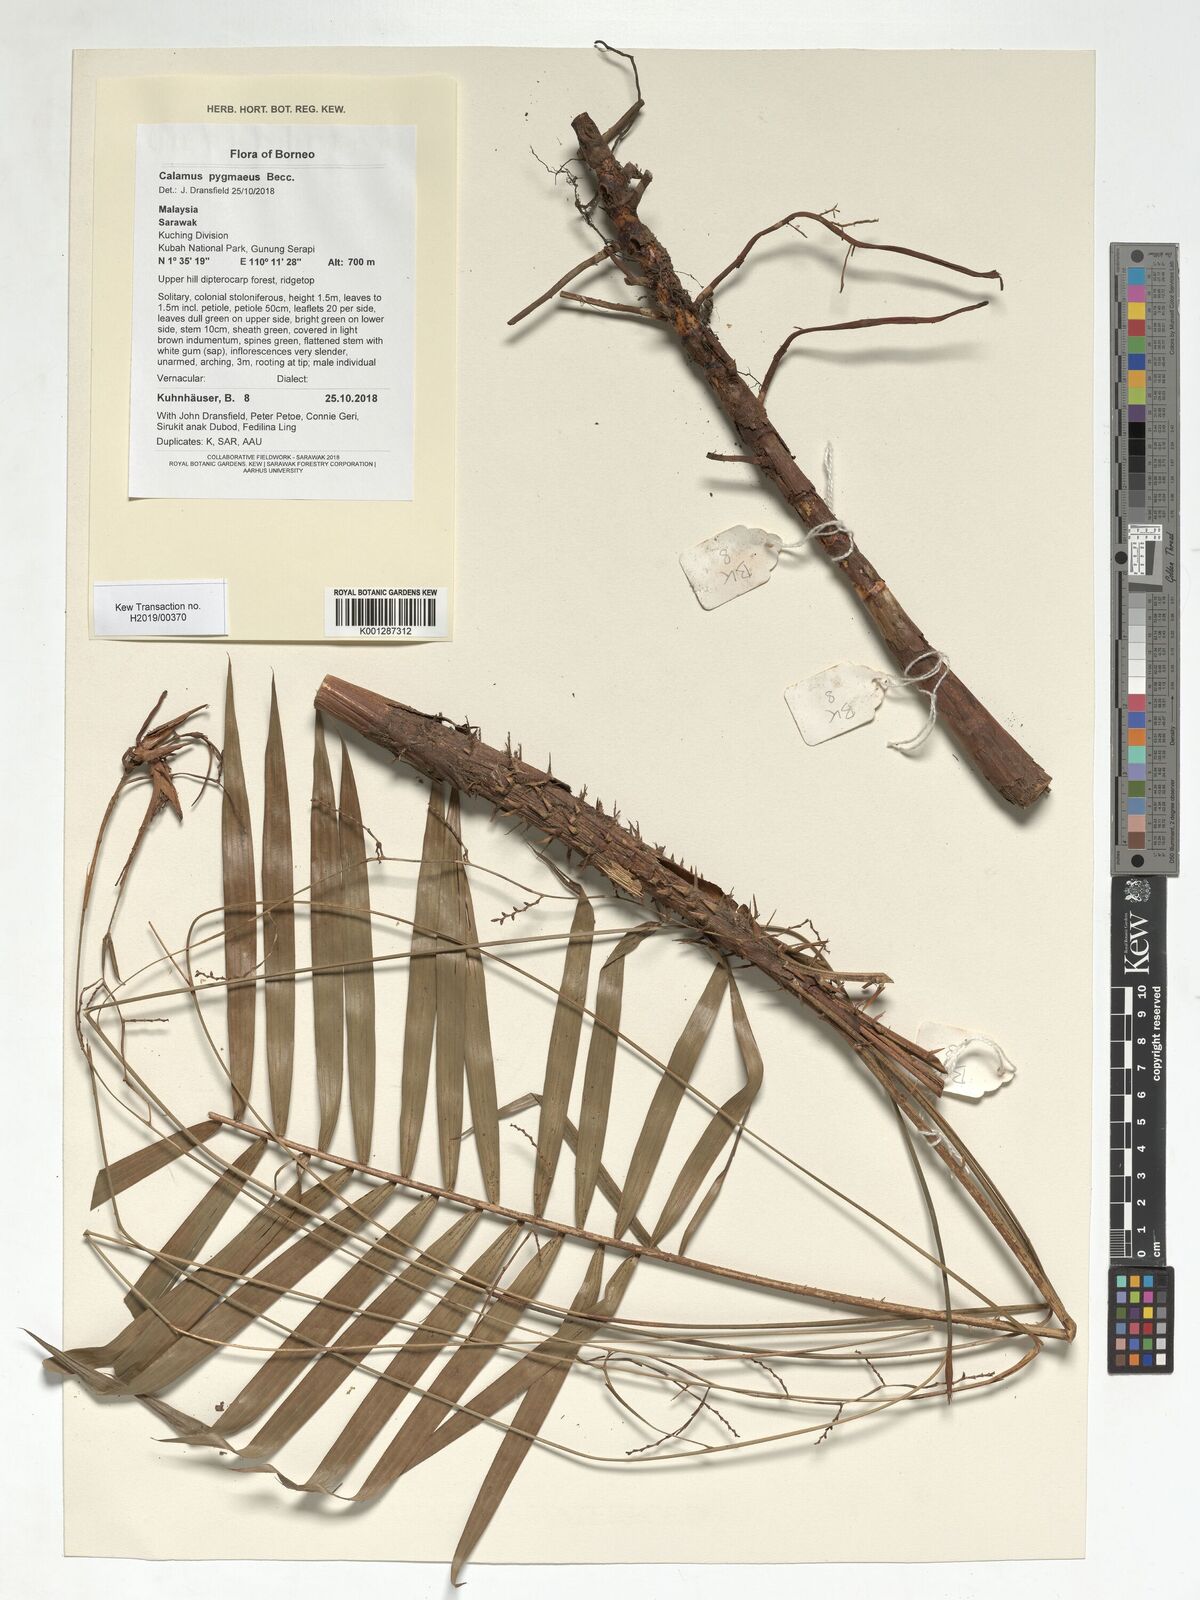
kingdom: Plantae
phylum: Tracheophyta
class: Liliopsida
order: Arecales
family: Arecaceae
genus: Calamus
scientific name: Calamus pygmaeus
